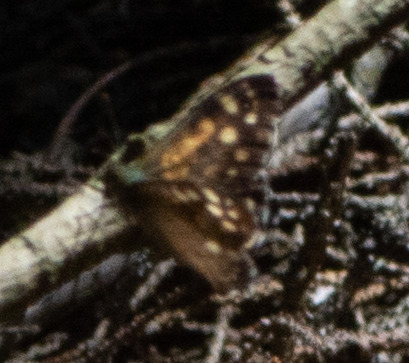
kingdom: Animalia
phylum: Arthropoda
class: Insecta
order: Lepidoptera
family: Nymphalidae
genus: Pararge
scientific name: Pararge aegeria
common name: Skovrandøje
